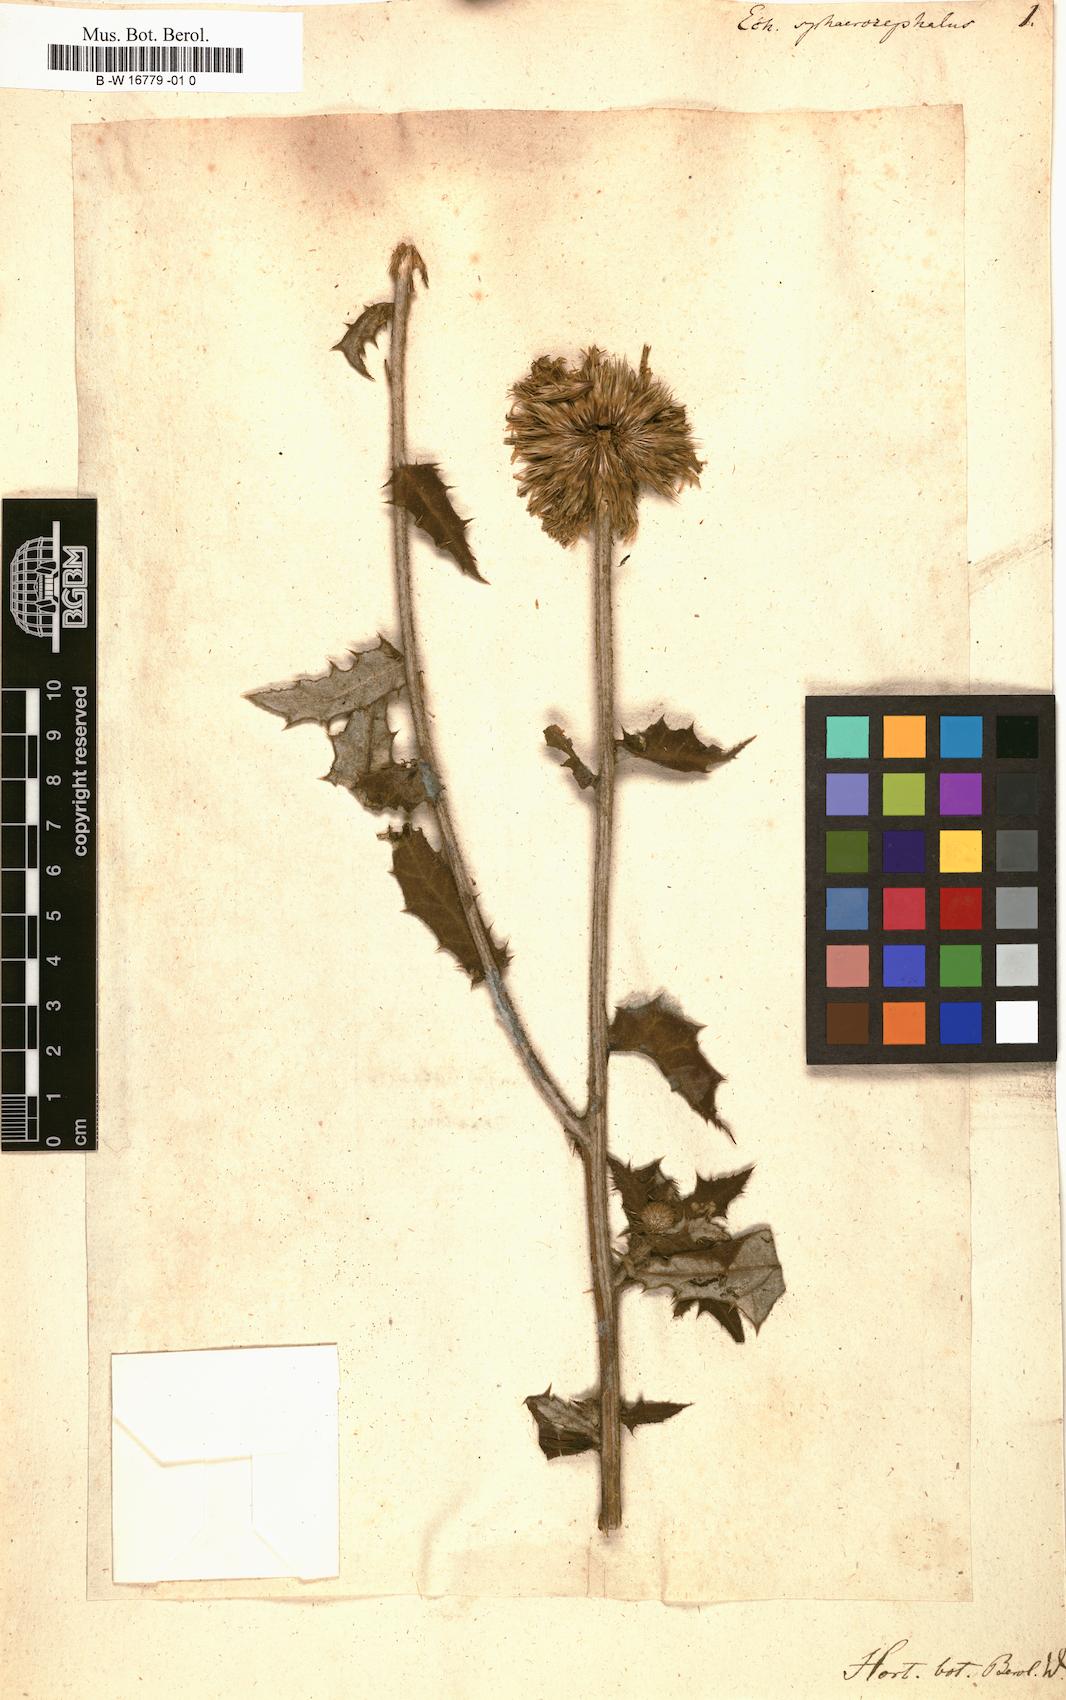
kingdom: Plantae
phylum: Tracheophyta
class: Magnoliopsida
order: Asterales
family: Asteraceae
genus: Echinops
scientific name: Echinops sphaerocephalus
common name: Glandular globe-thistle
